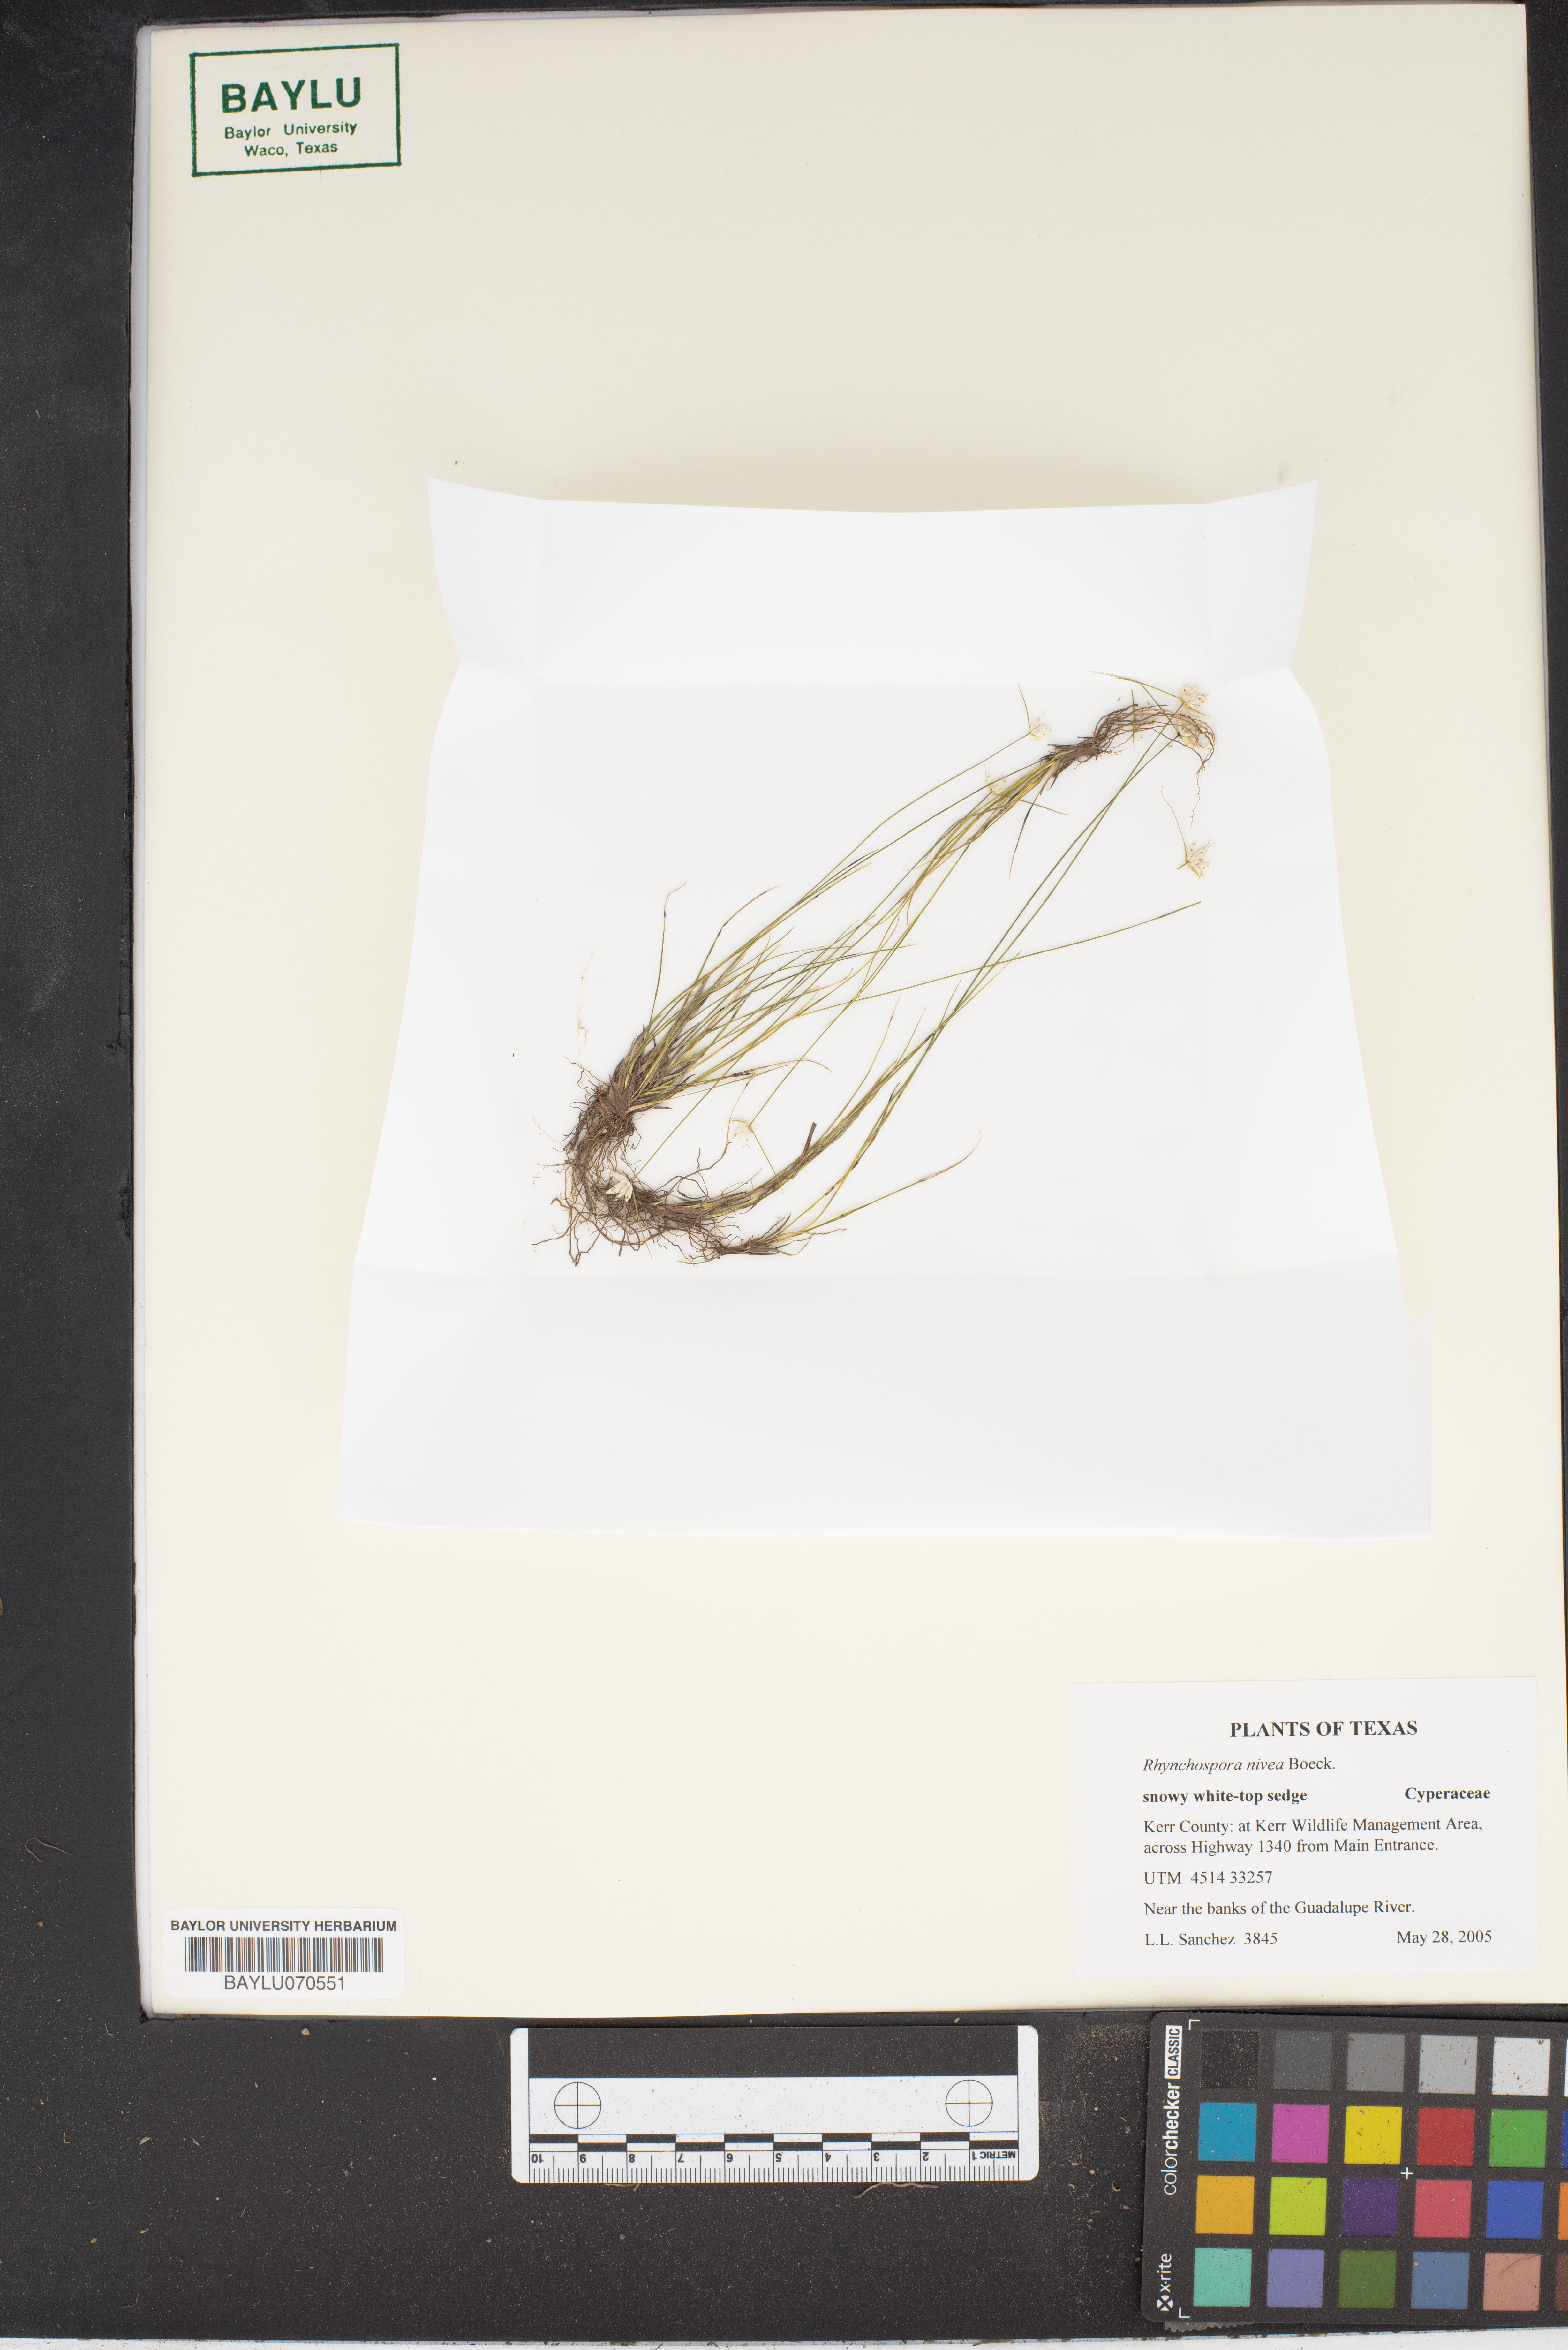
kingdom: Plantae
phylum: Tracheophyta
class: Liliopsida
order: Poales
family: Cyperaceae
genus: Rhynchospora
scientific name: Rhynchospora nivea
